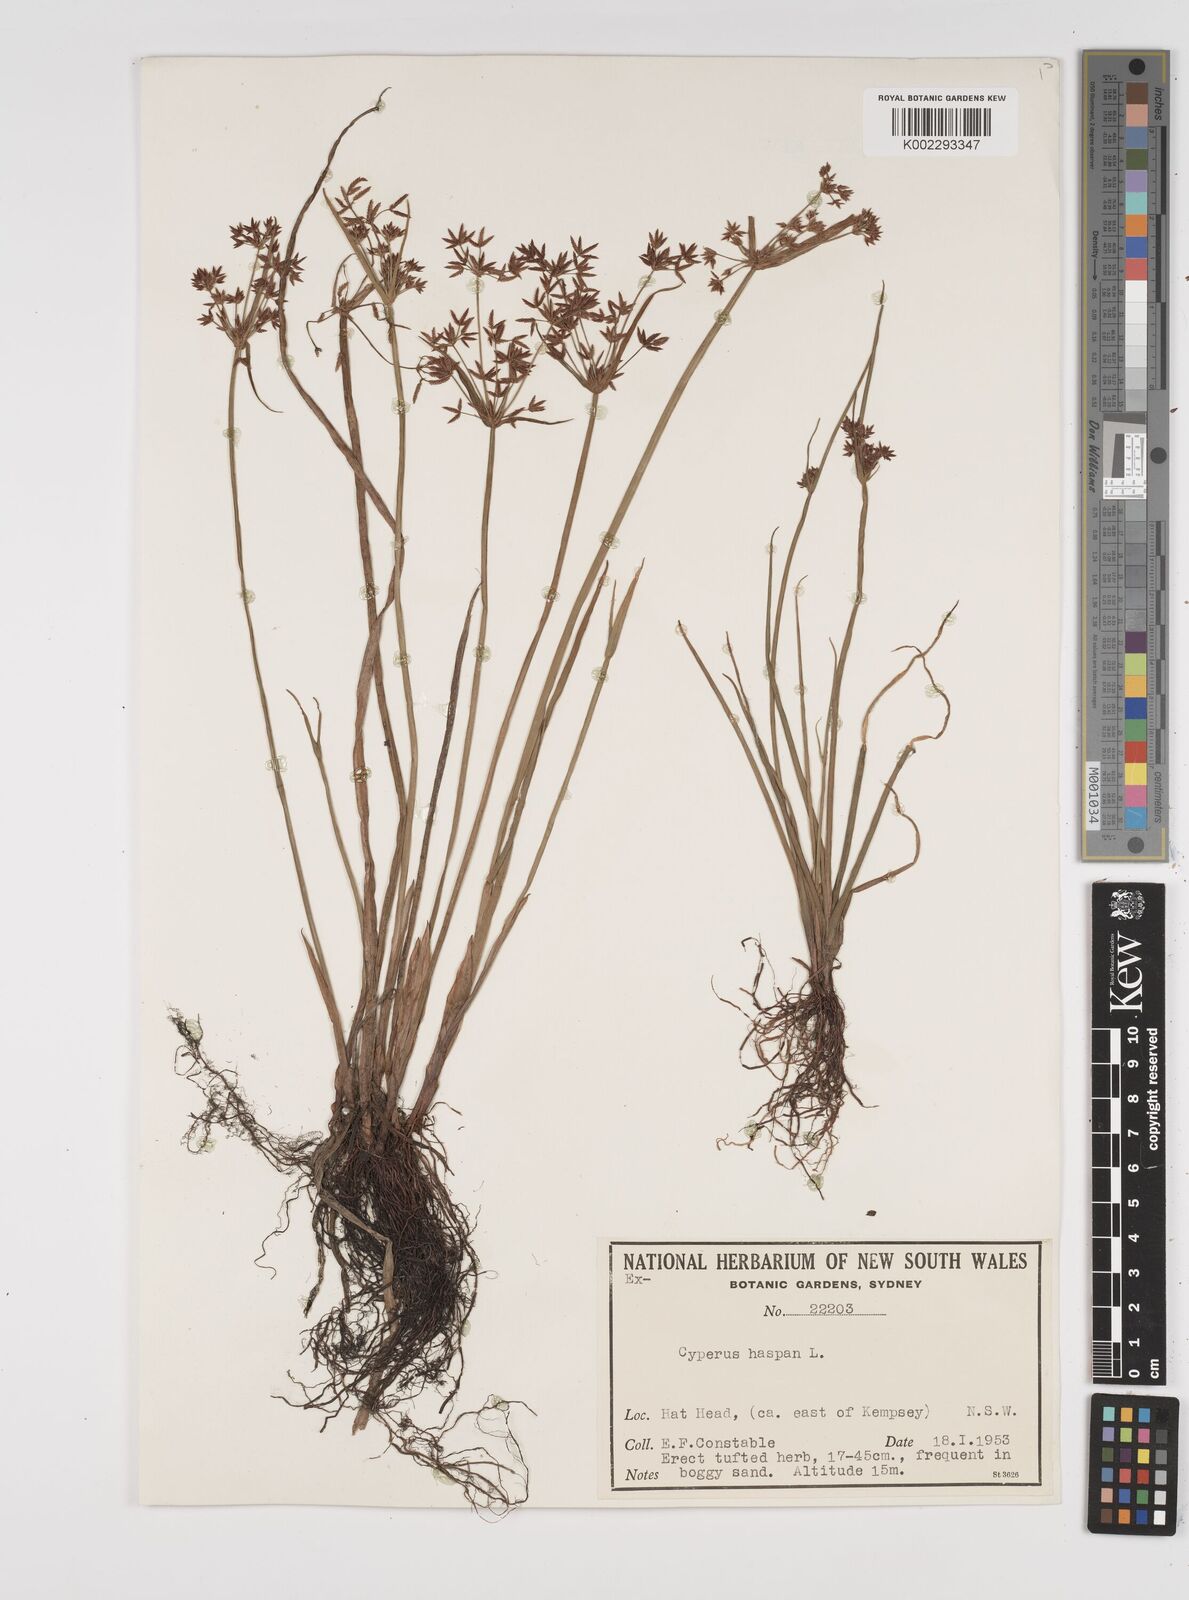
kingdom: Plantae
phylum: Tracheophyta
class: Liliopsida
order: Poales
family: Cyperaceae
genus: Cyperus
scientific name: Cyperus haspan
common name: Haspan flatsedge
